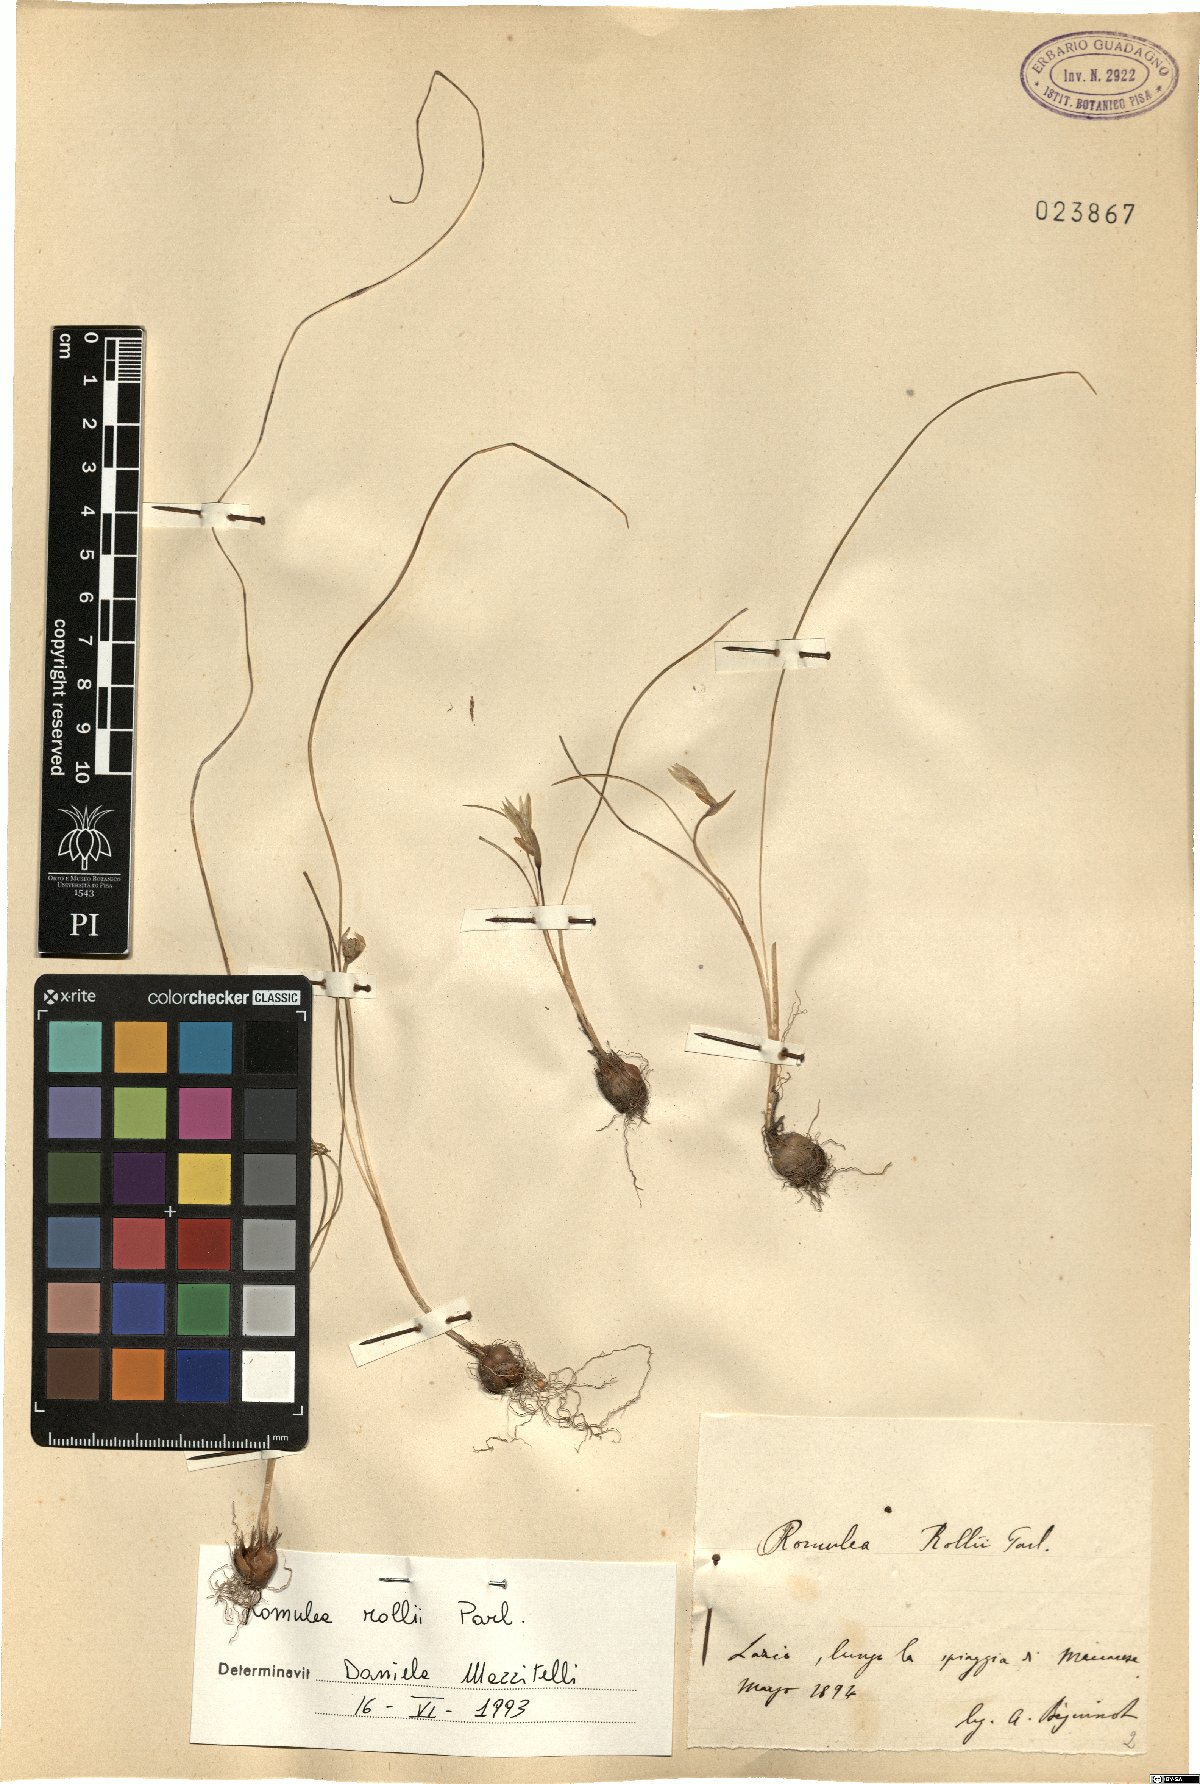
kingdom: Plantae
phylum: Tracheophyta
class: Liliopsida
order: Asparagales
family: Iridaceae
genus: Romulea
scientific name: Romulea columnae
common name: Sand-crocus
